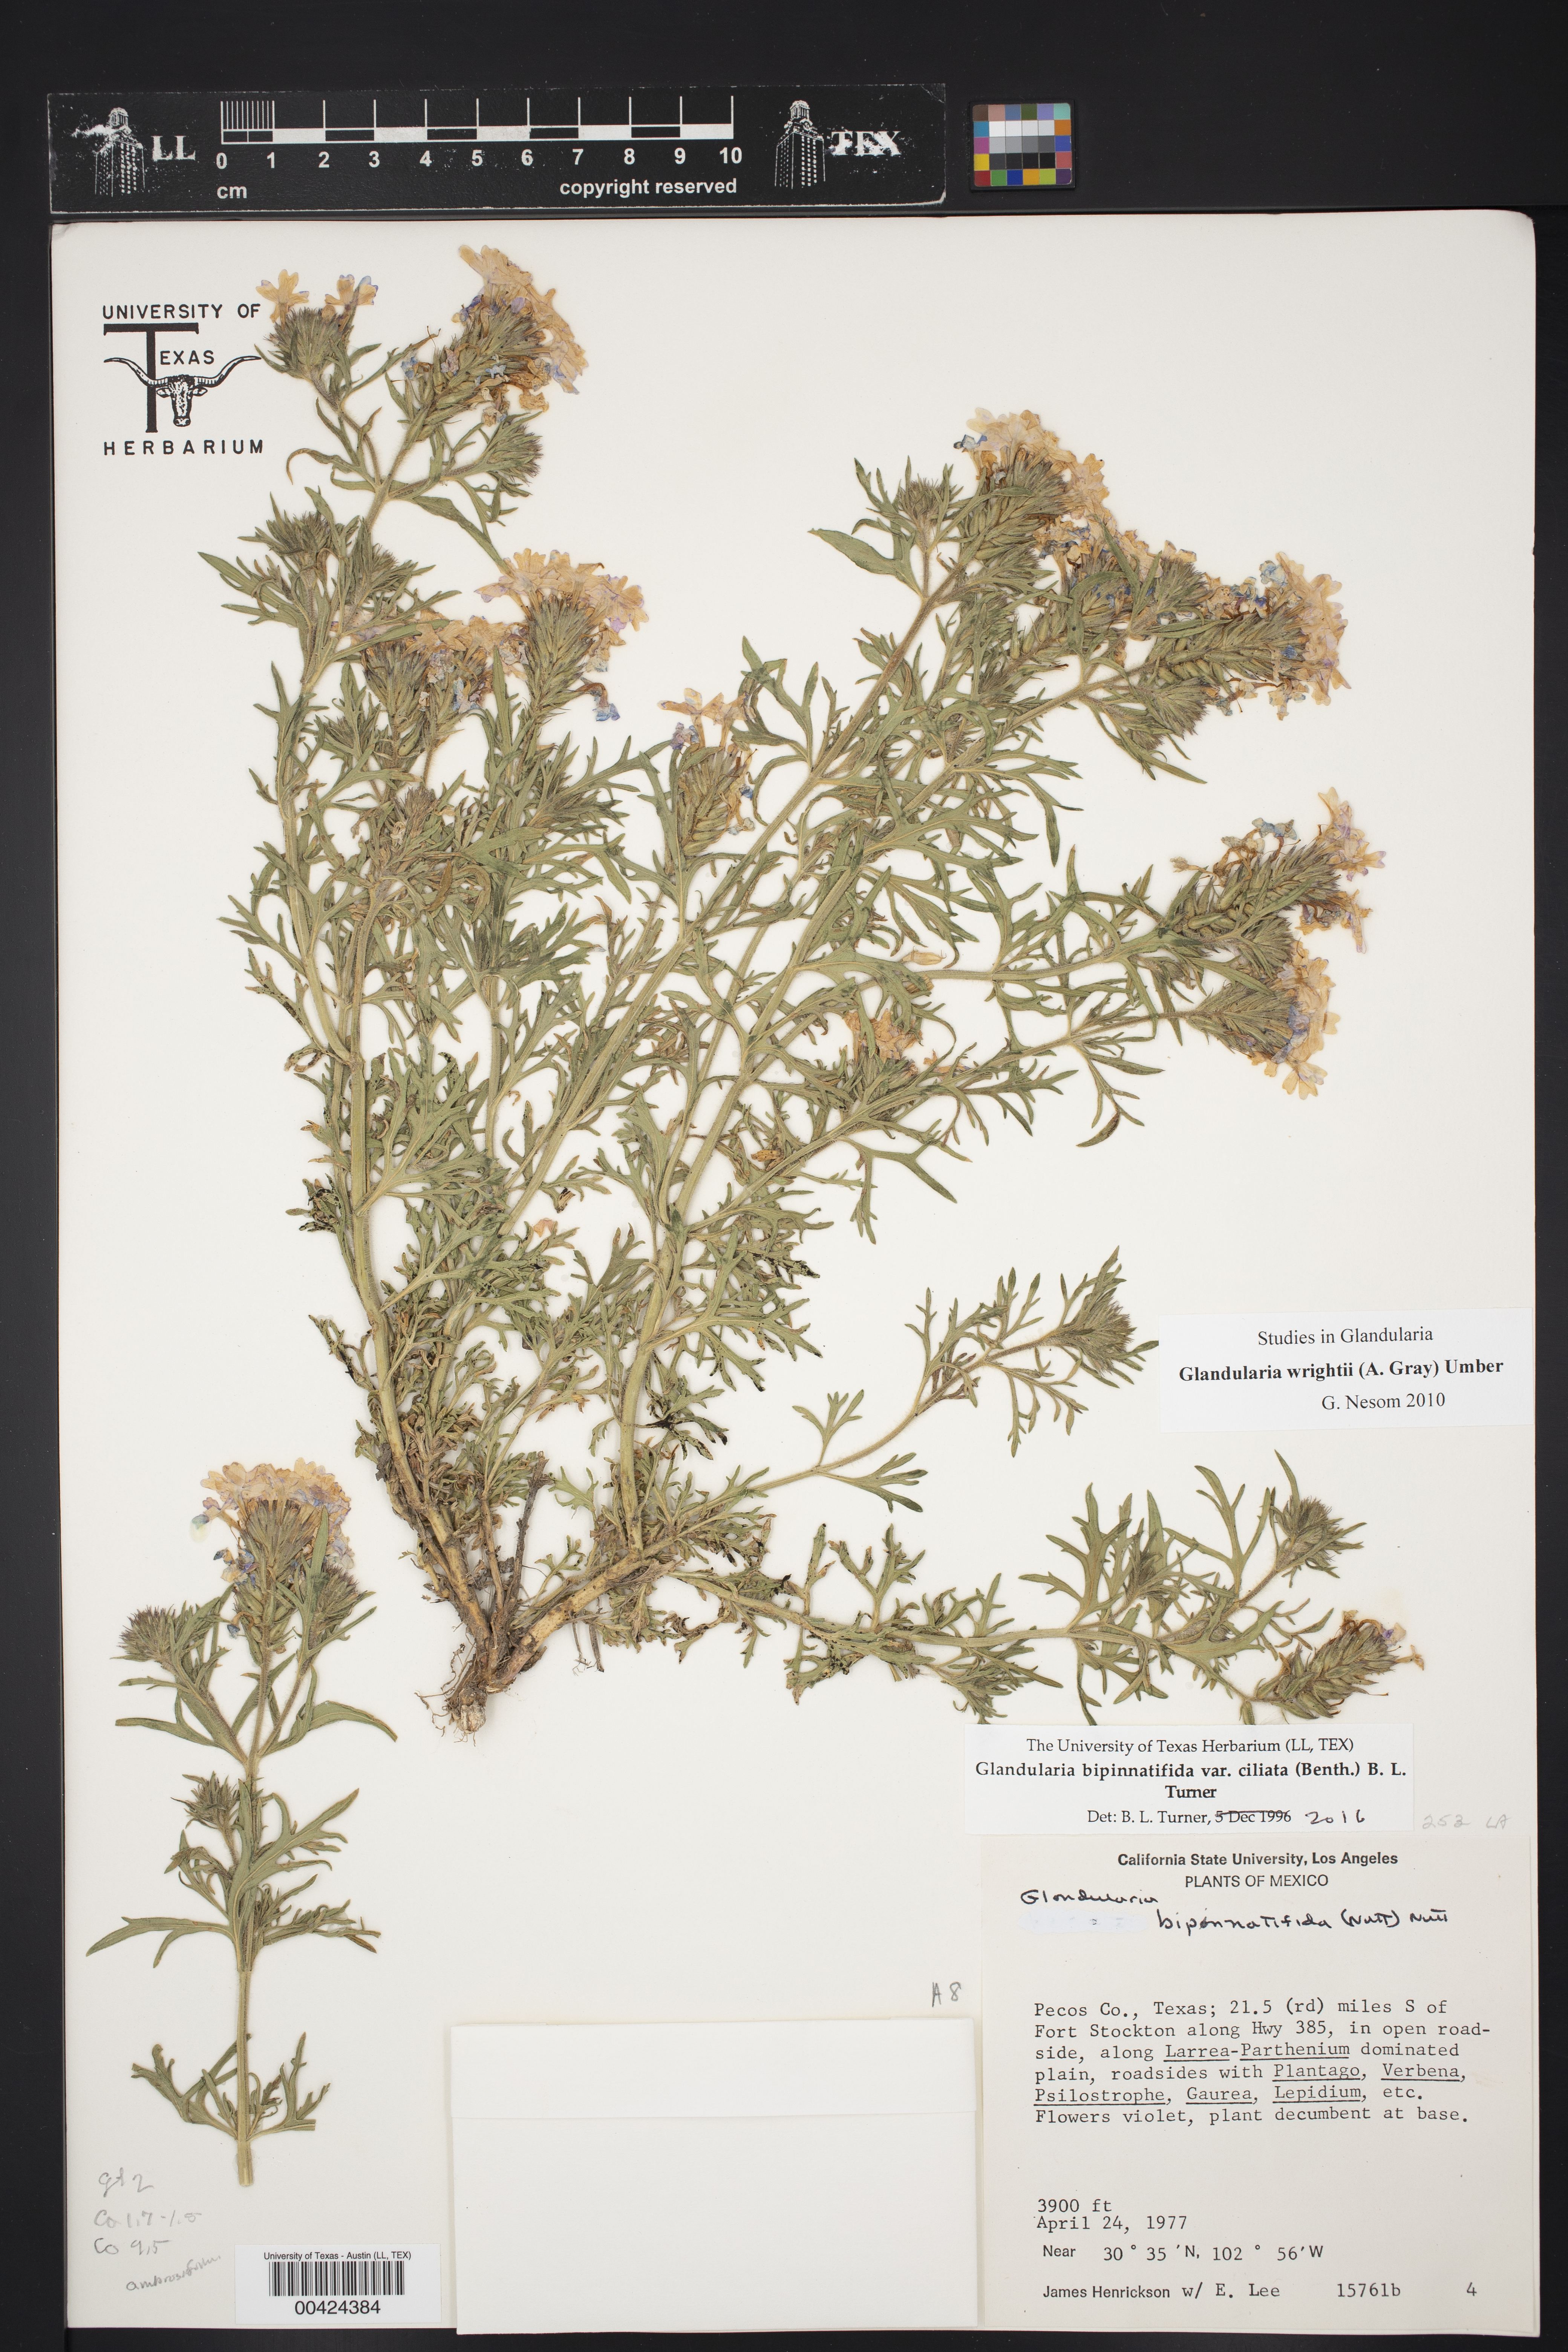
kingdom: Plantae
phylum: Tracheophyta
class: Magnoliopsida
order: Lamiales
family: Verbenaceae
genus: Verbena
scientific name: Verbena bipinnatifida
